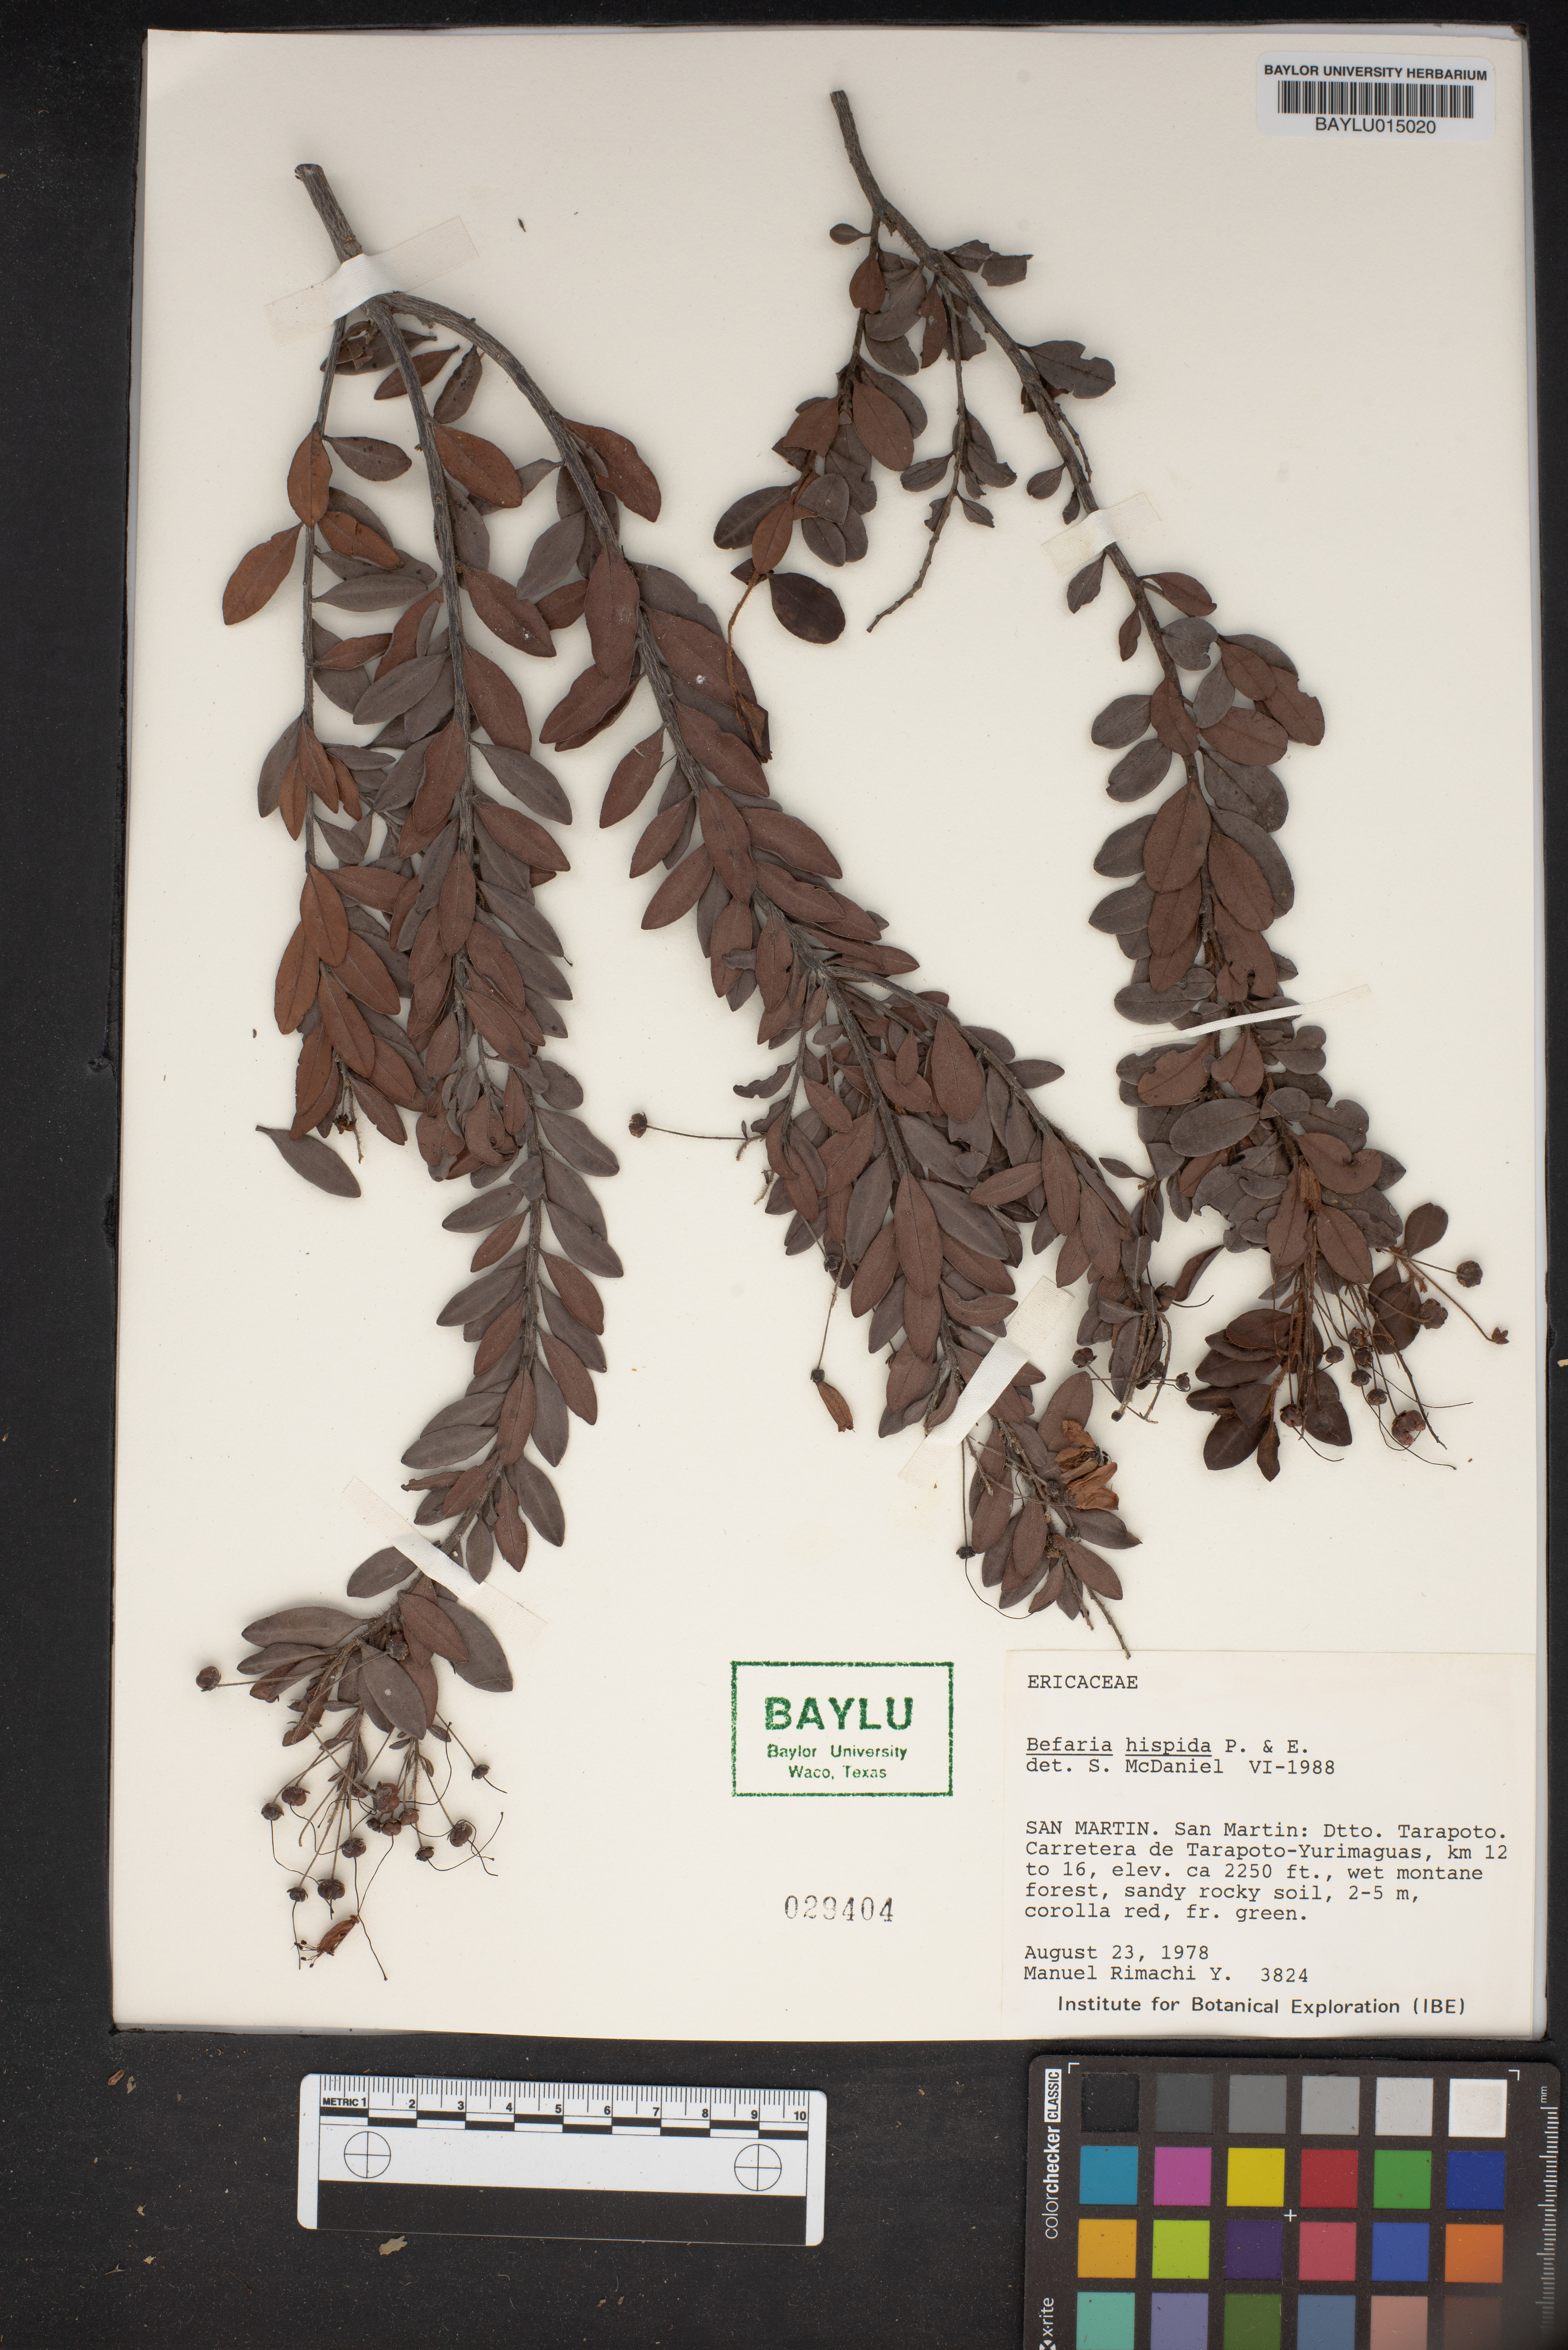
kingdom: Plantae
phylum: Tracheophyta
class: Magnoliopsida
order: Ericales
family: Ericaceae
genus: Bejaria
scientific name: Bejaria aestuans
